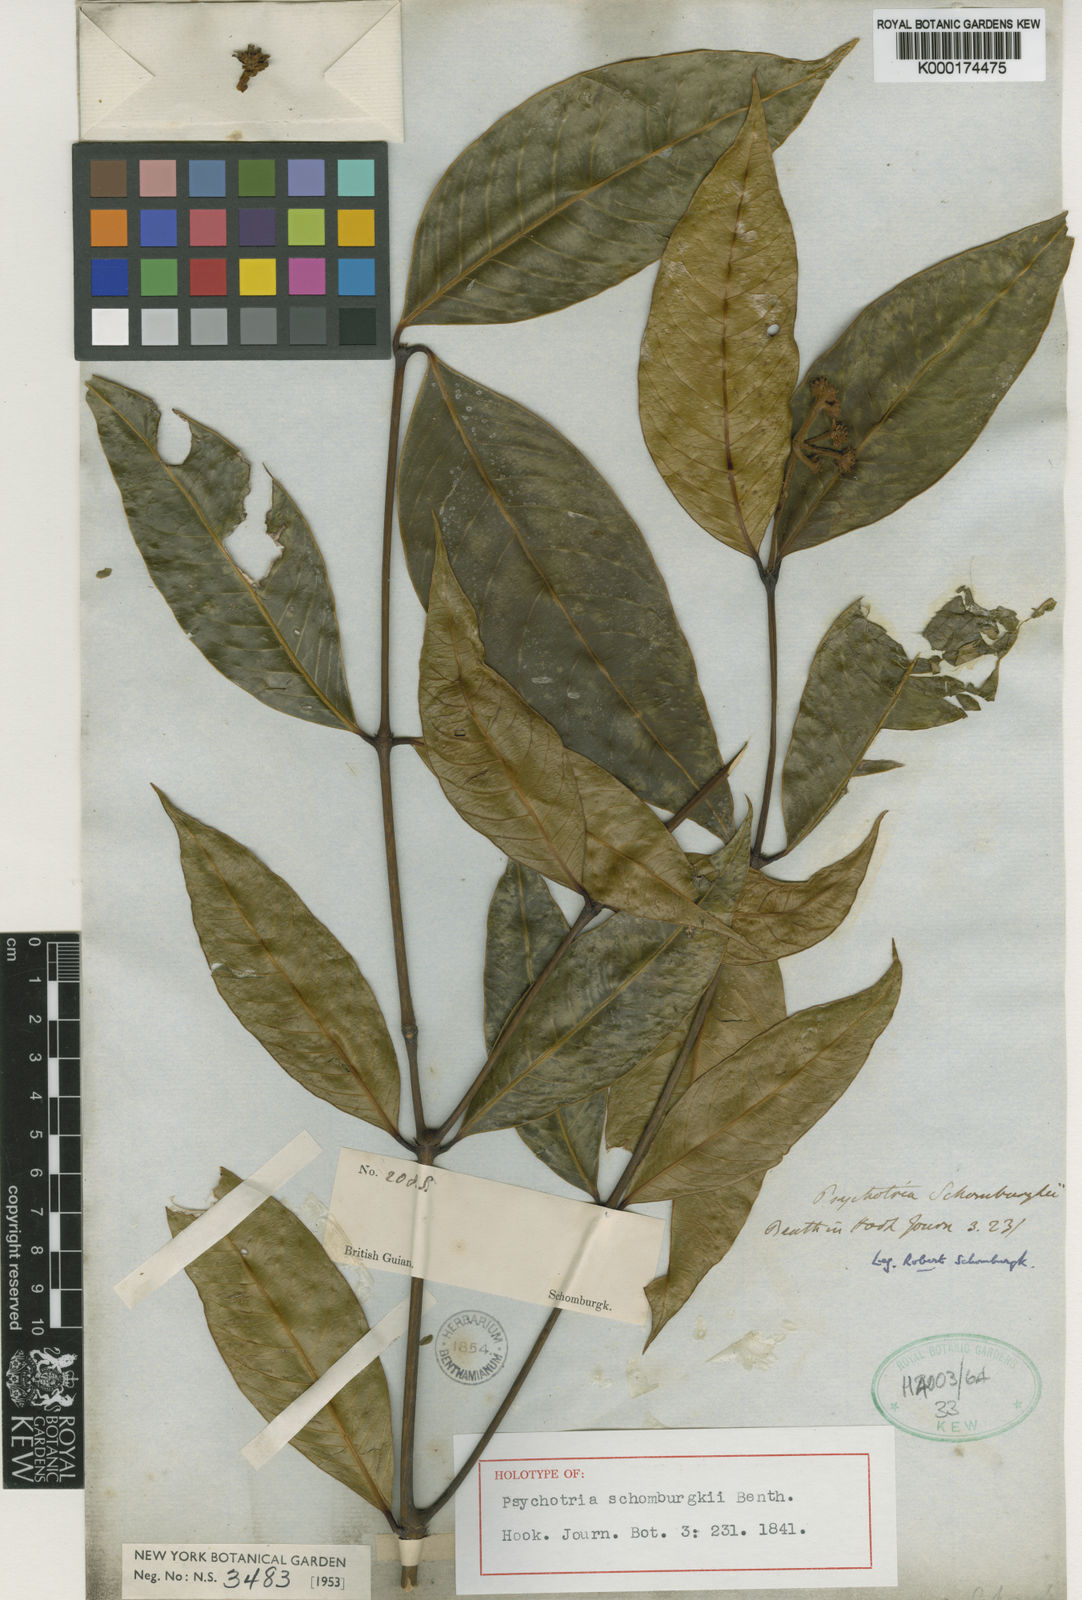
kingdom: Plantae
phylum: Tracheophyta
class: Magnoliopsida
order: Gentianales
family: Rubiaceae
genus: Palicourea
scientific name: Palicourea schomburgkii
